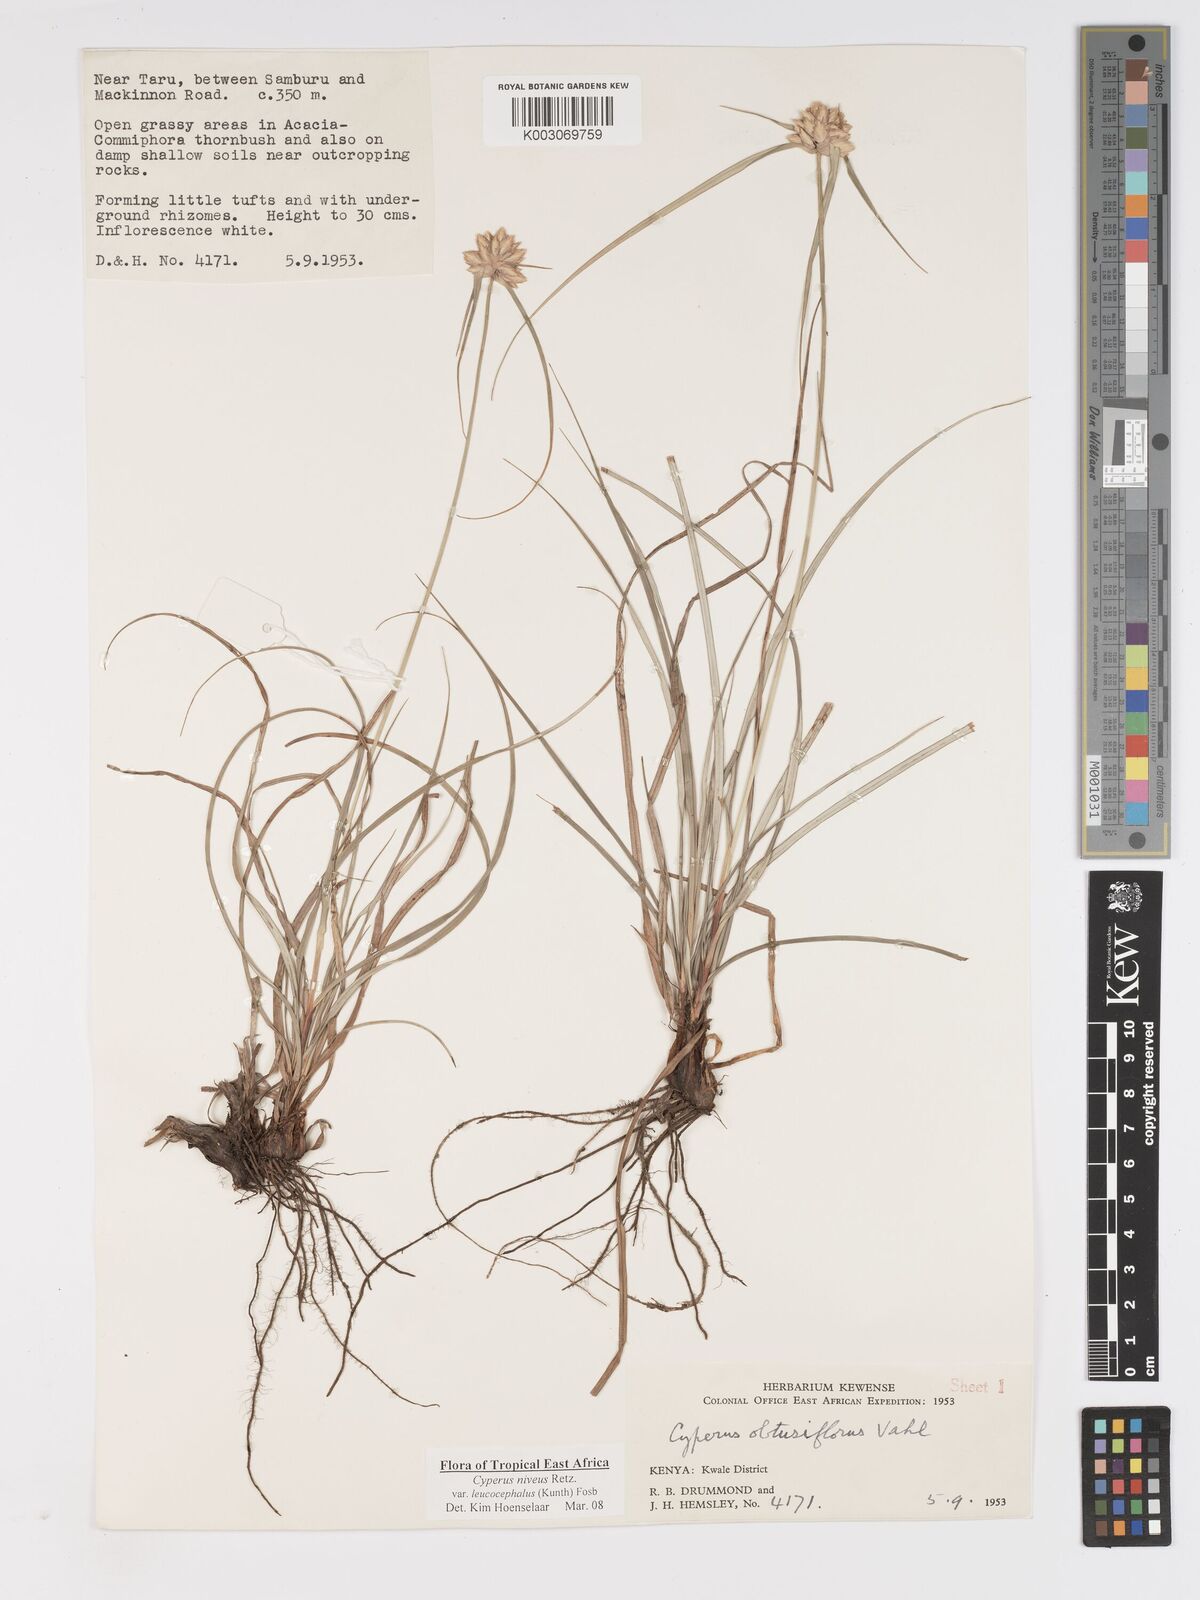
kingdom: Plantae
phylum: Tracheophyta
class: Liliopsida
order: Poales
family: Cyperaceae
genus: Cyperus
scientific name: Cyperus niveus
